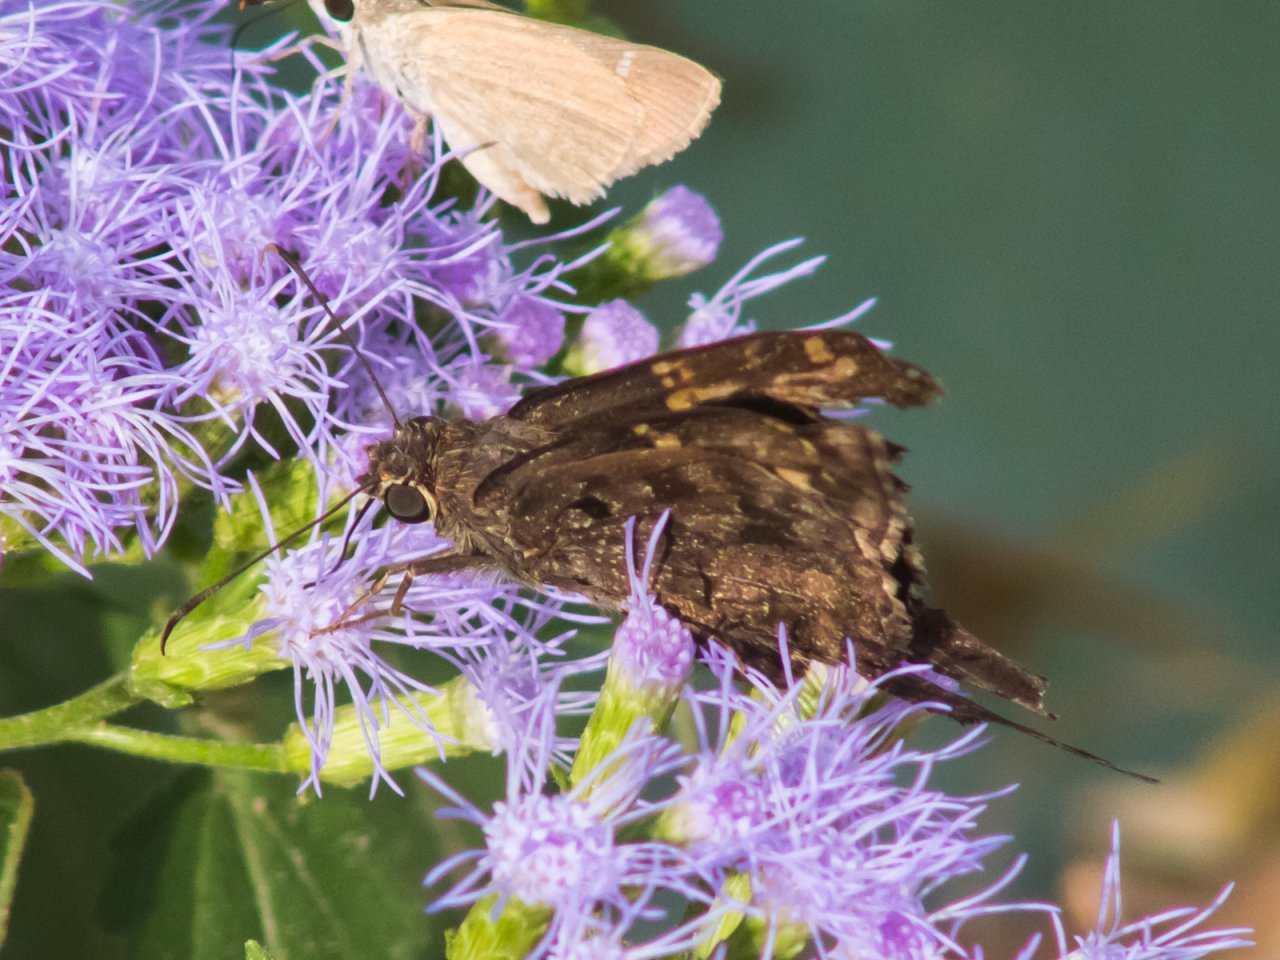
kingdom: Animalia
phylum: Arthropoda
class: Insecta
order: Lepidoptera
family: Hesperiidae
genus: Urbanus
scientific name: Urbanus dorantes
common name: Dorantes Longtail
